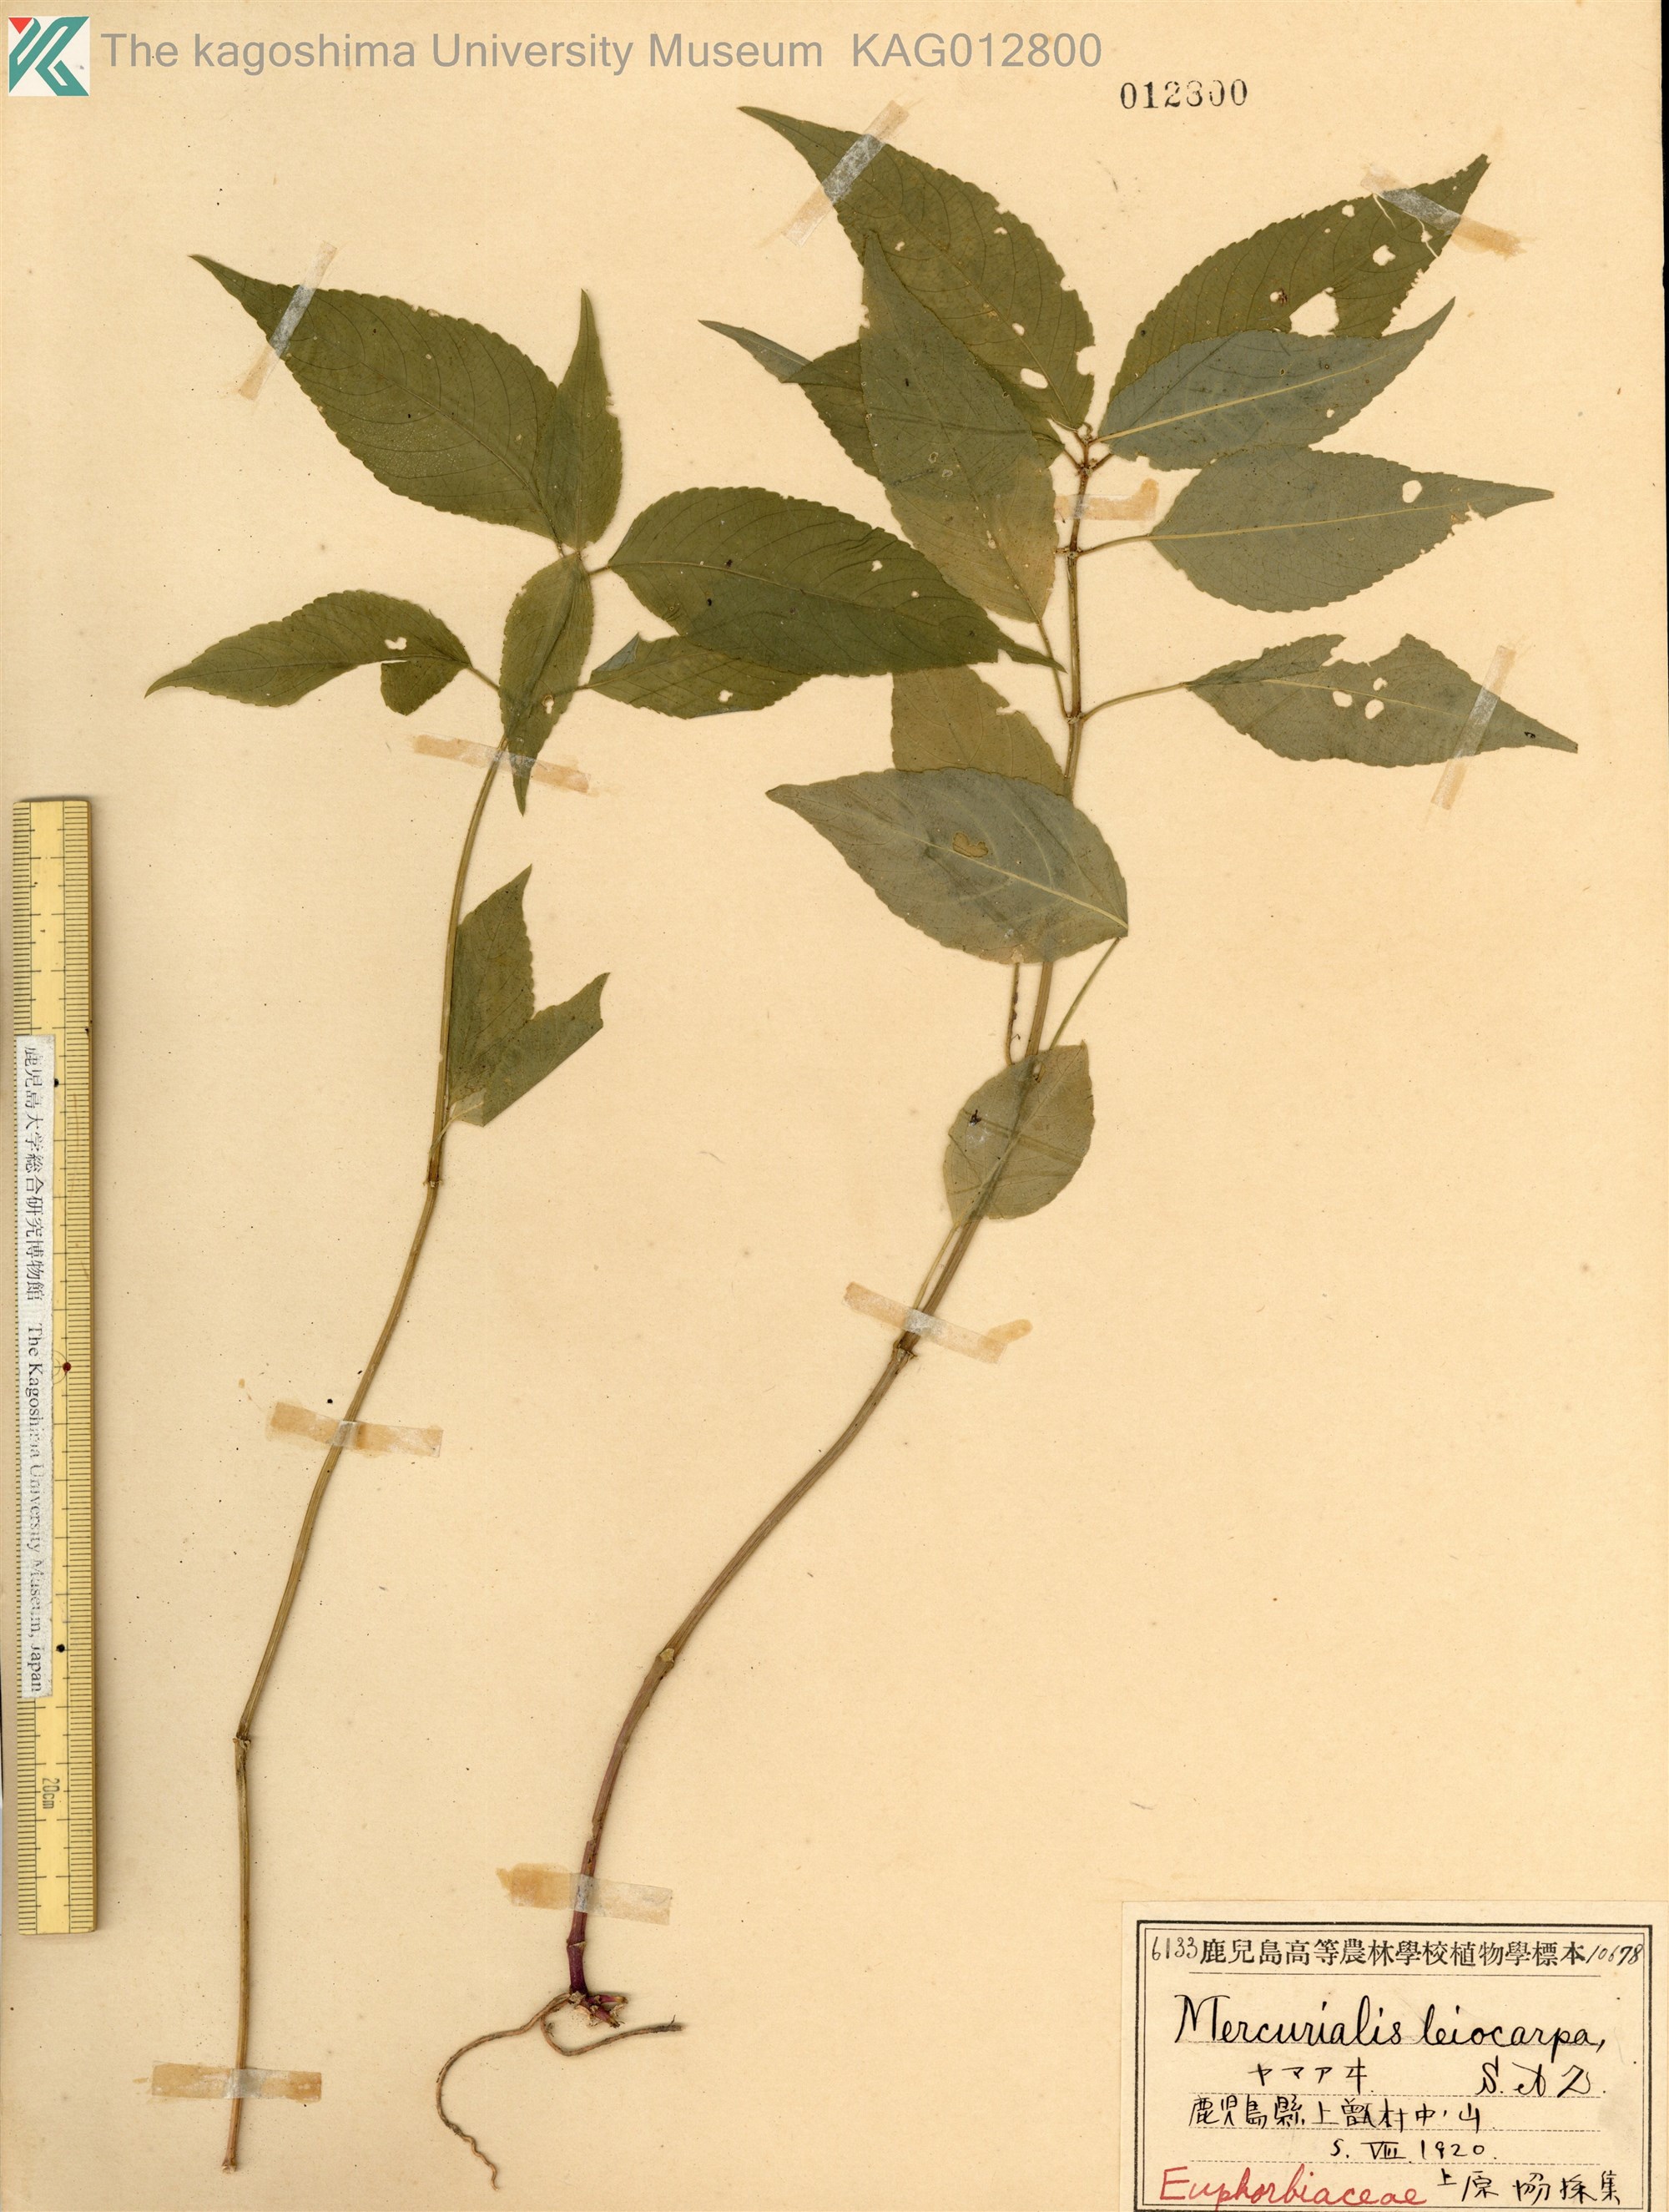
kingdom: Plantae
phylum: Tracheophyta
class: Magnoliopsida
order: Malpighiales
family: Euphorbiaceae
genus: Mercurialis
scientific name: Mercurialis leiocarpa
